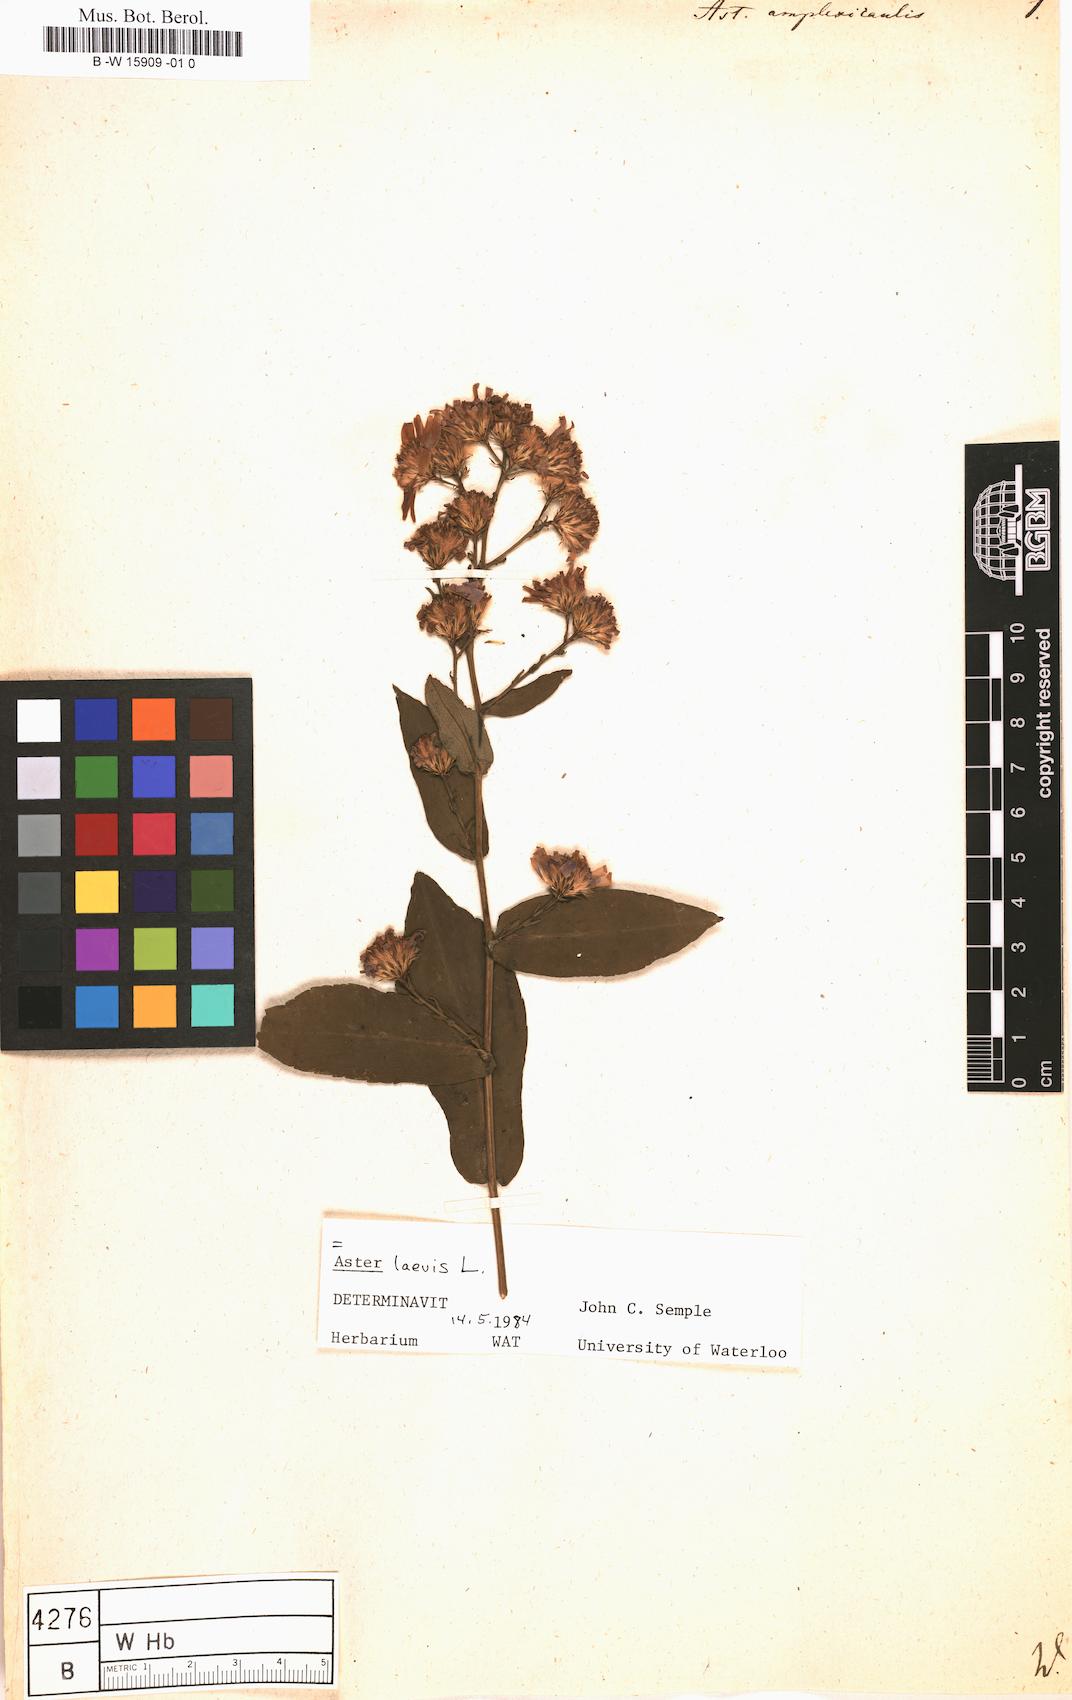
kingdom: Plantae
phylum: Tracheophyta
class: Magnoliopsida
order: Asterales
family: Asteraceae
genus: Symphyotrichum
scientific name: Symphyotrichum patens
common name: Late purple aster
